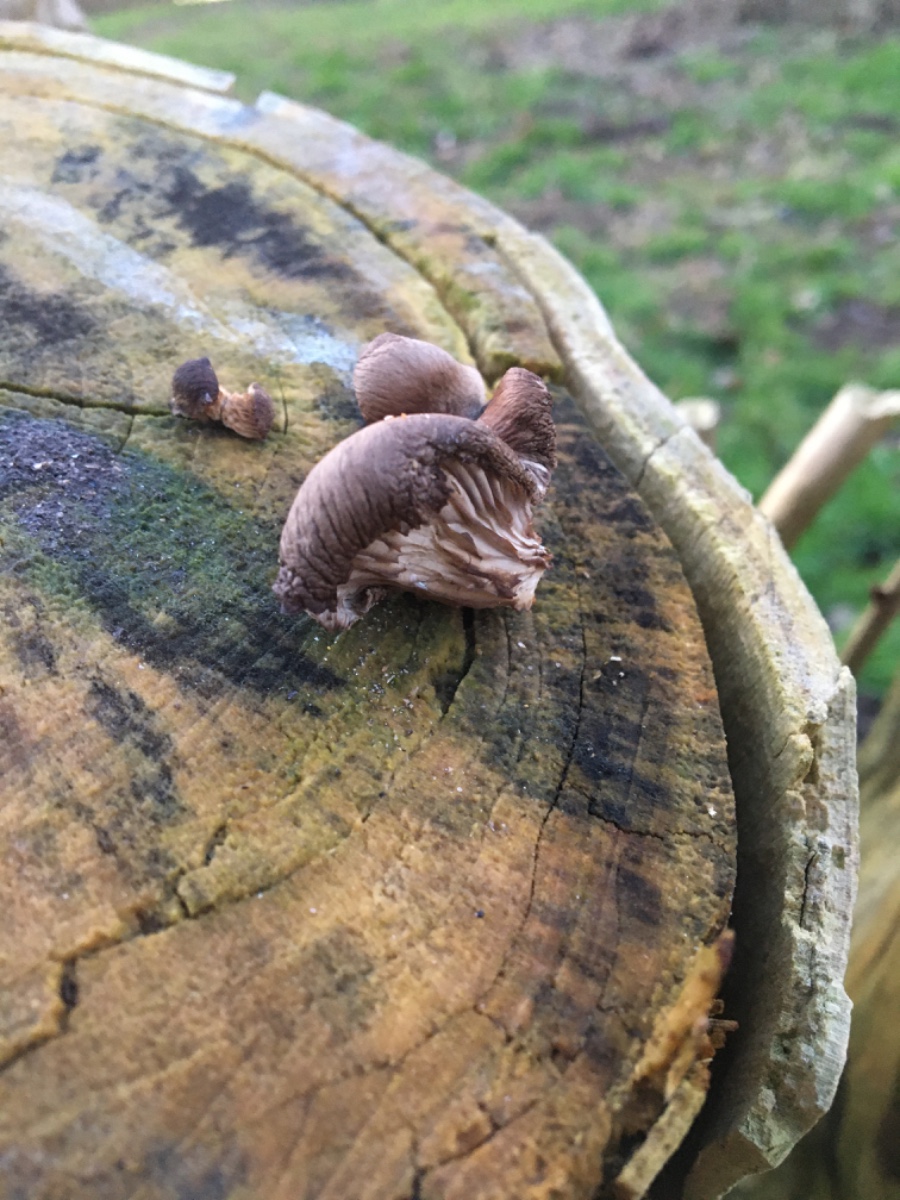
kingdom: Fungi
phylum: Basidiomycota
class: Agaricomycetes
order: Agaricales
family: Pleurotaceae
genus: Pleurotus
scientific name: Pleurotus ostreatus
